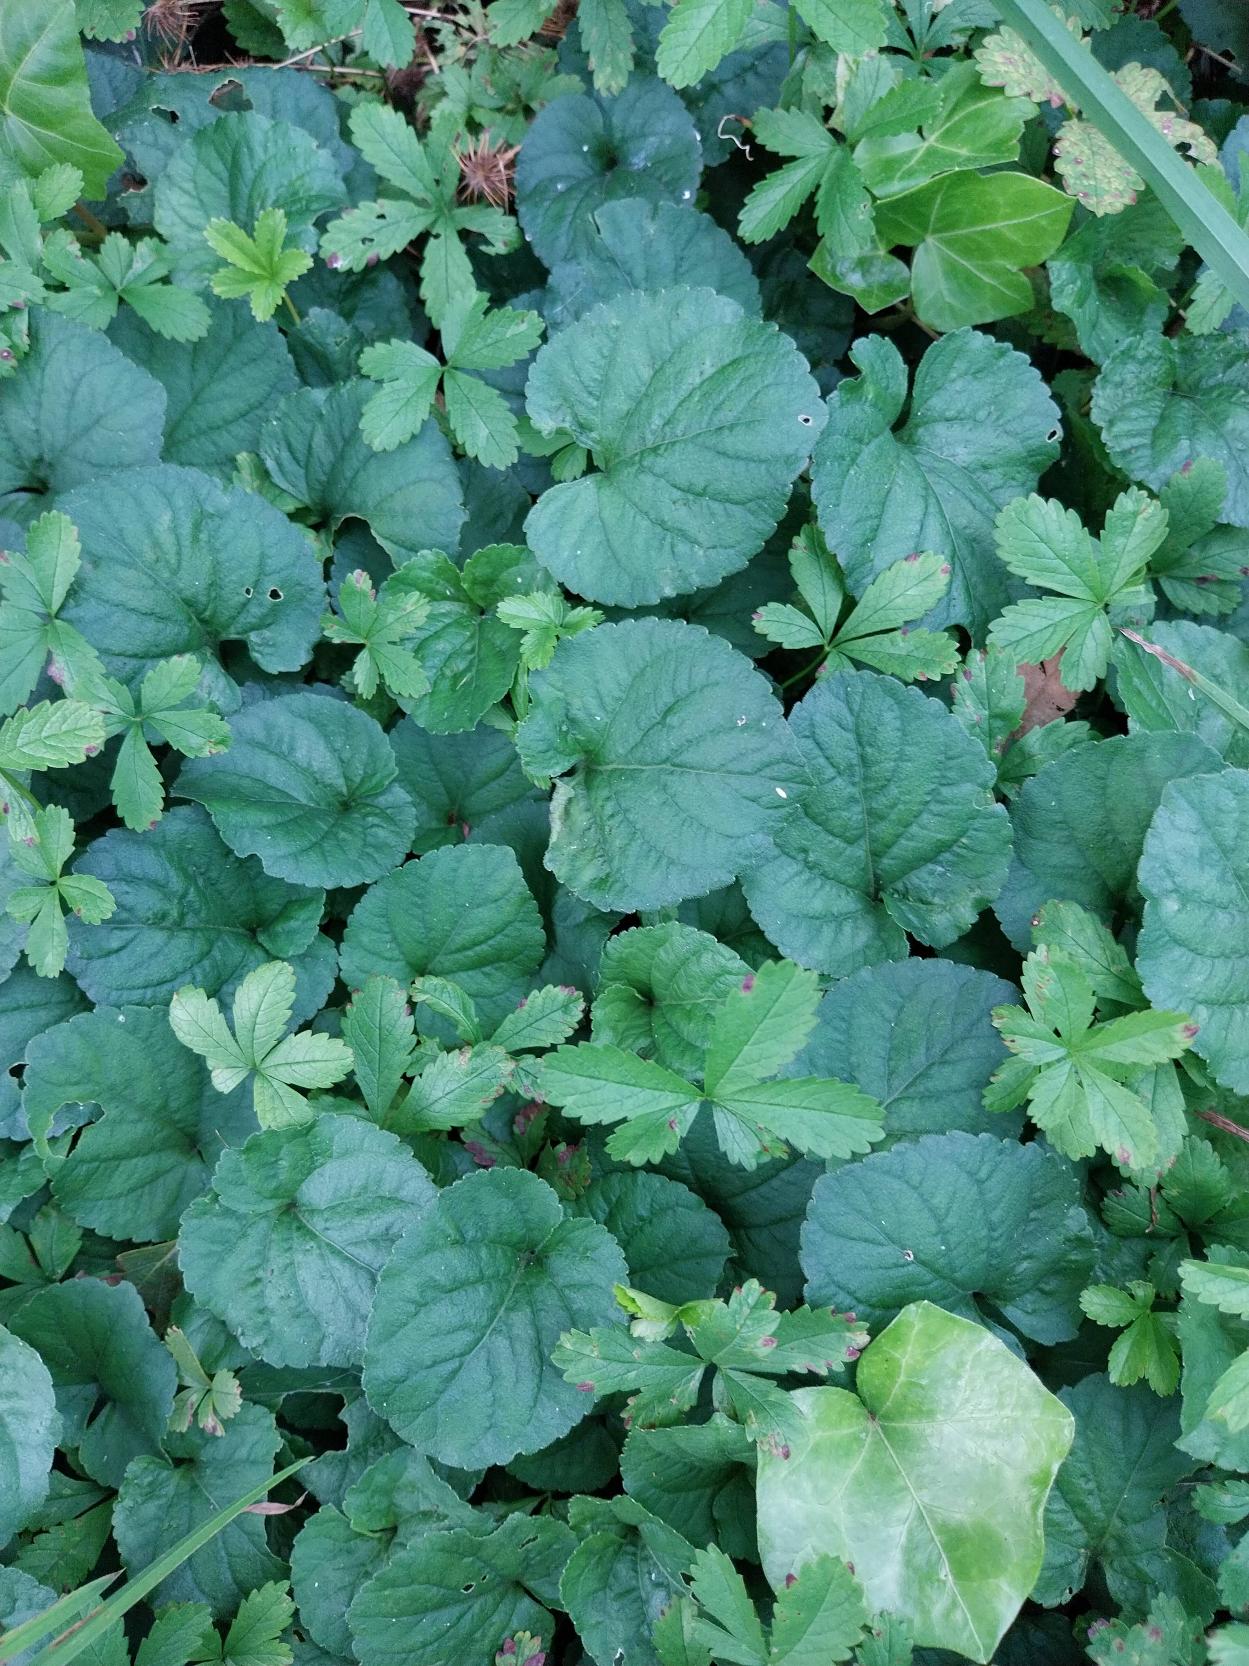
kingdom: Plantae
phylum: Tracheophyta
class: Magnoliopsida
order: Malpighiales
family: Violaceae
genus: Viola
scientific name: Viola odorata
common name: Marts-viol
